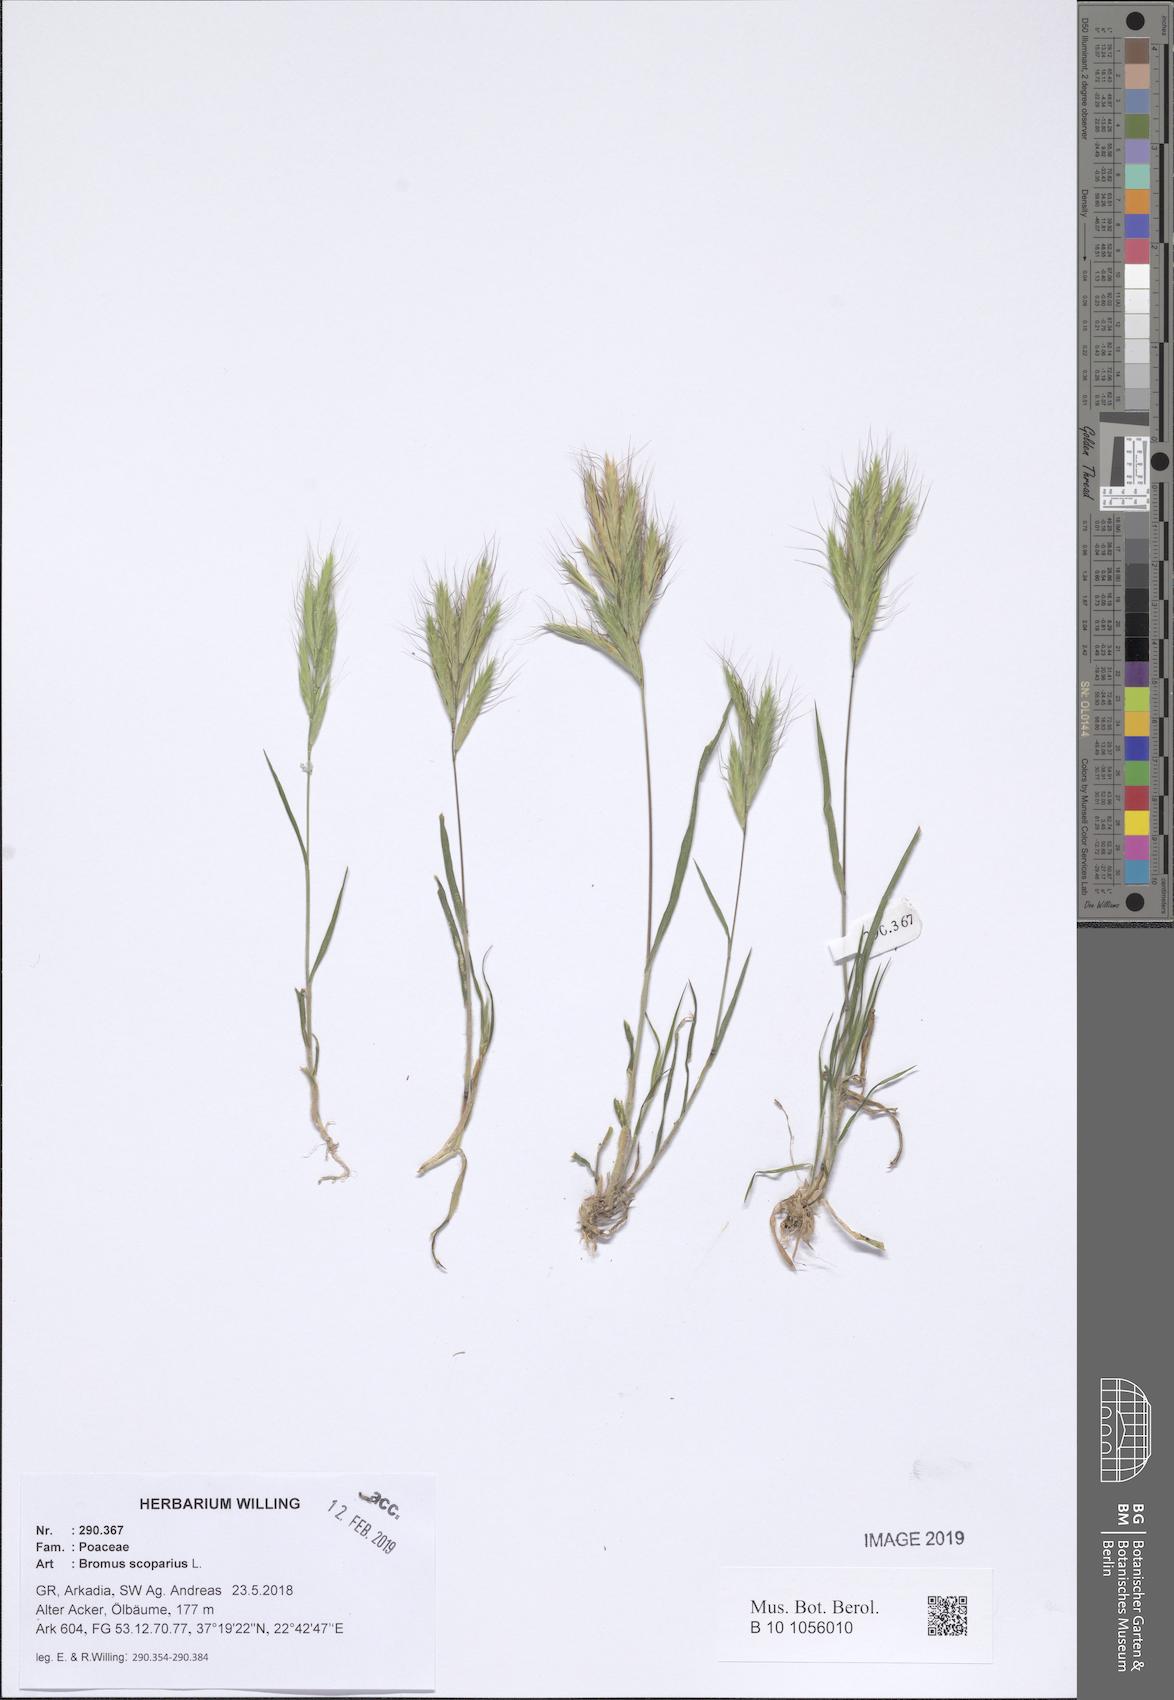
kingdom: Plantae
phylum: Tracheophyta
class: Liliopsida
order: Poales
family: Poaceae
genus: Bromus
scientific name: Bromus scoparius
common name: Broom brome
